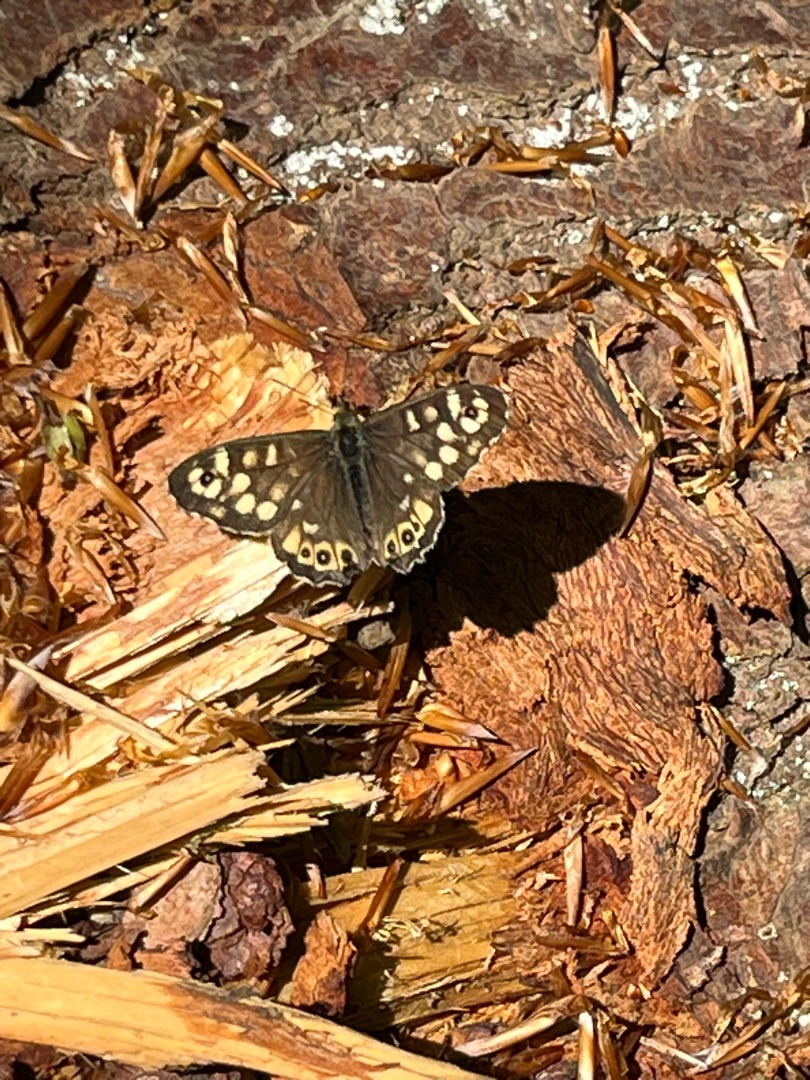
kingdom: Animalia
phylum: Arthropoda
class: Insecta
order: Lepidoptera
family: Nymphalidae
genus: Pararge
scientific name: Pararge aegeria
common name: Skovrandøje
